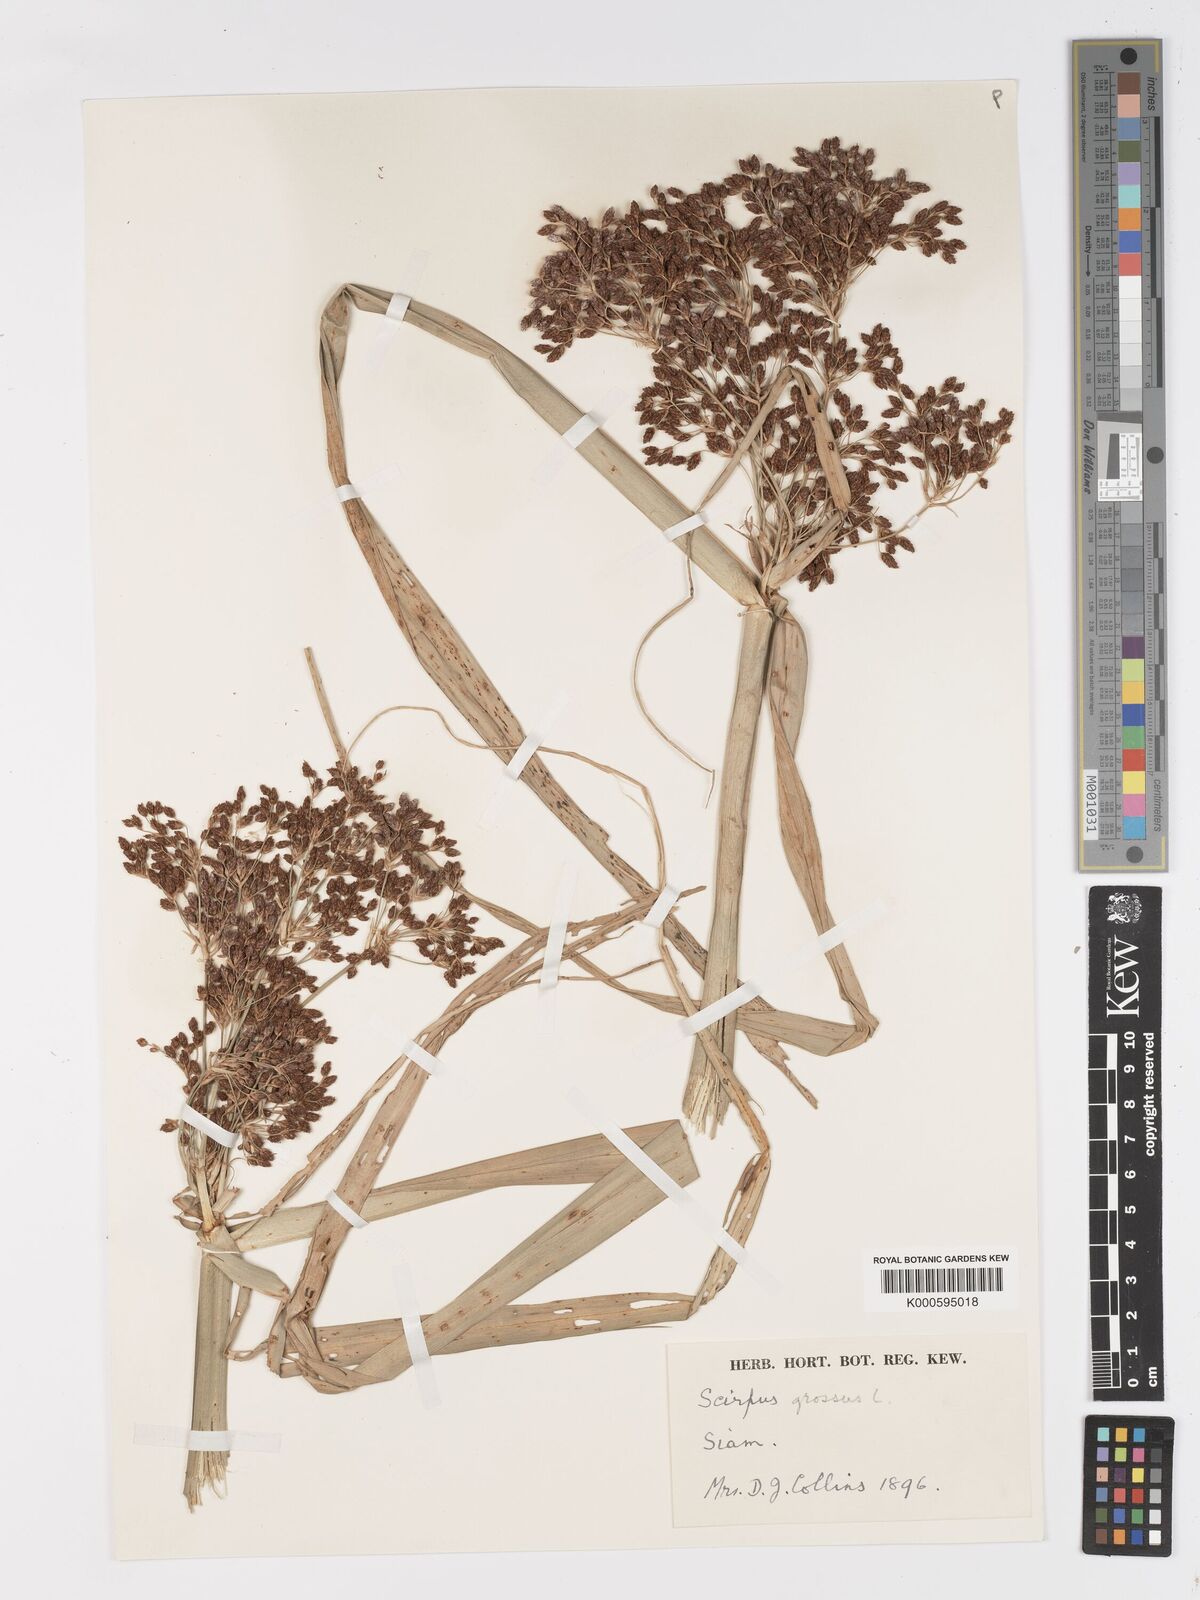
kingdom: Plantae
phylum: Tracheophyta
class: Liliopsida
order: Poales
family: Cyperaceae
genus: Actinoscirpus
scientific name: Actinoscirpus grossus
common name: Giant bur rush
